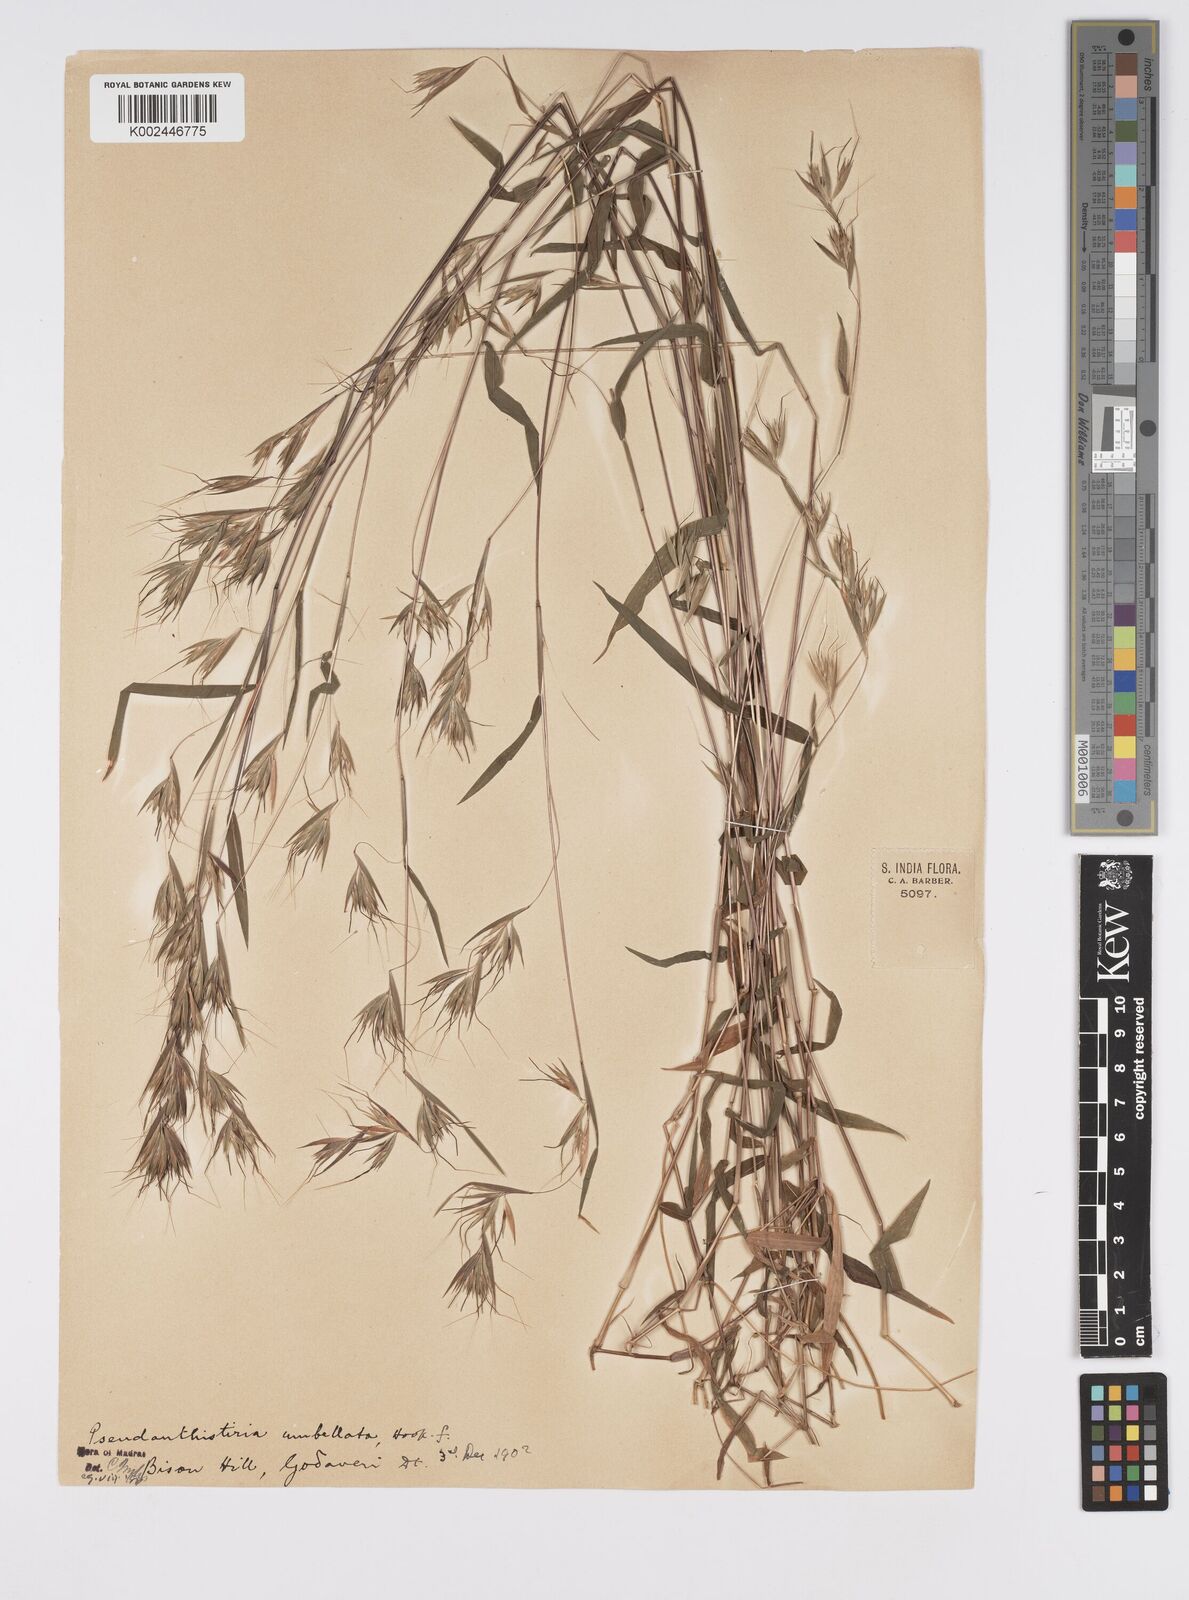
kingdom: Plantae
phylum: Tracheophyta
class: Liliopsida
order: Poales
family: Poaceae
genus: Pseudanthistiria
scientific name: Pseudanthistiria umbellata
